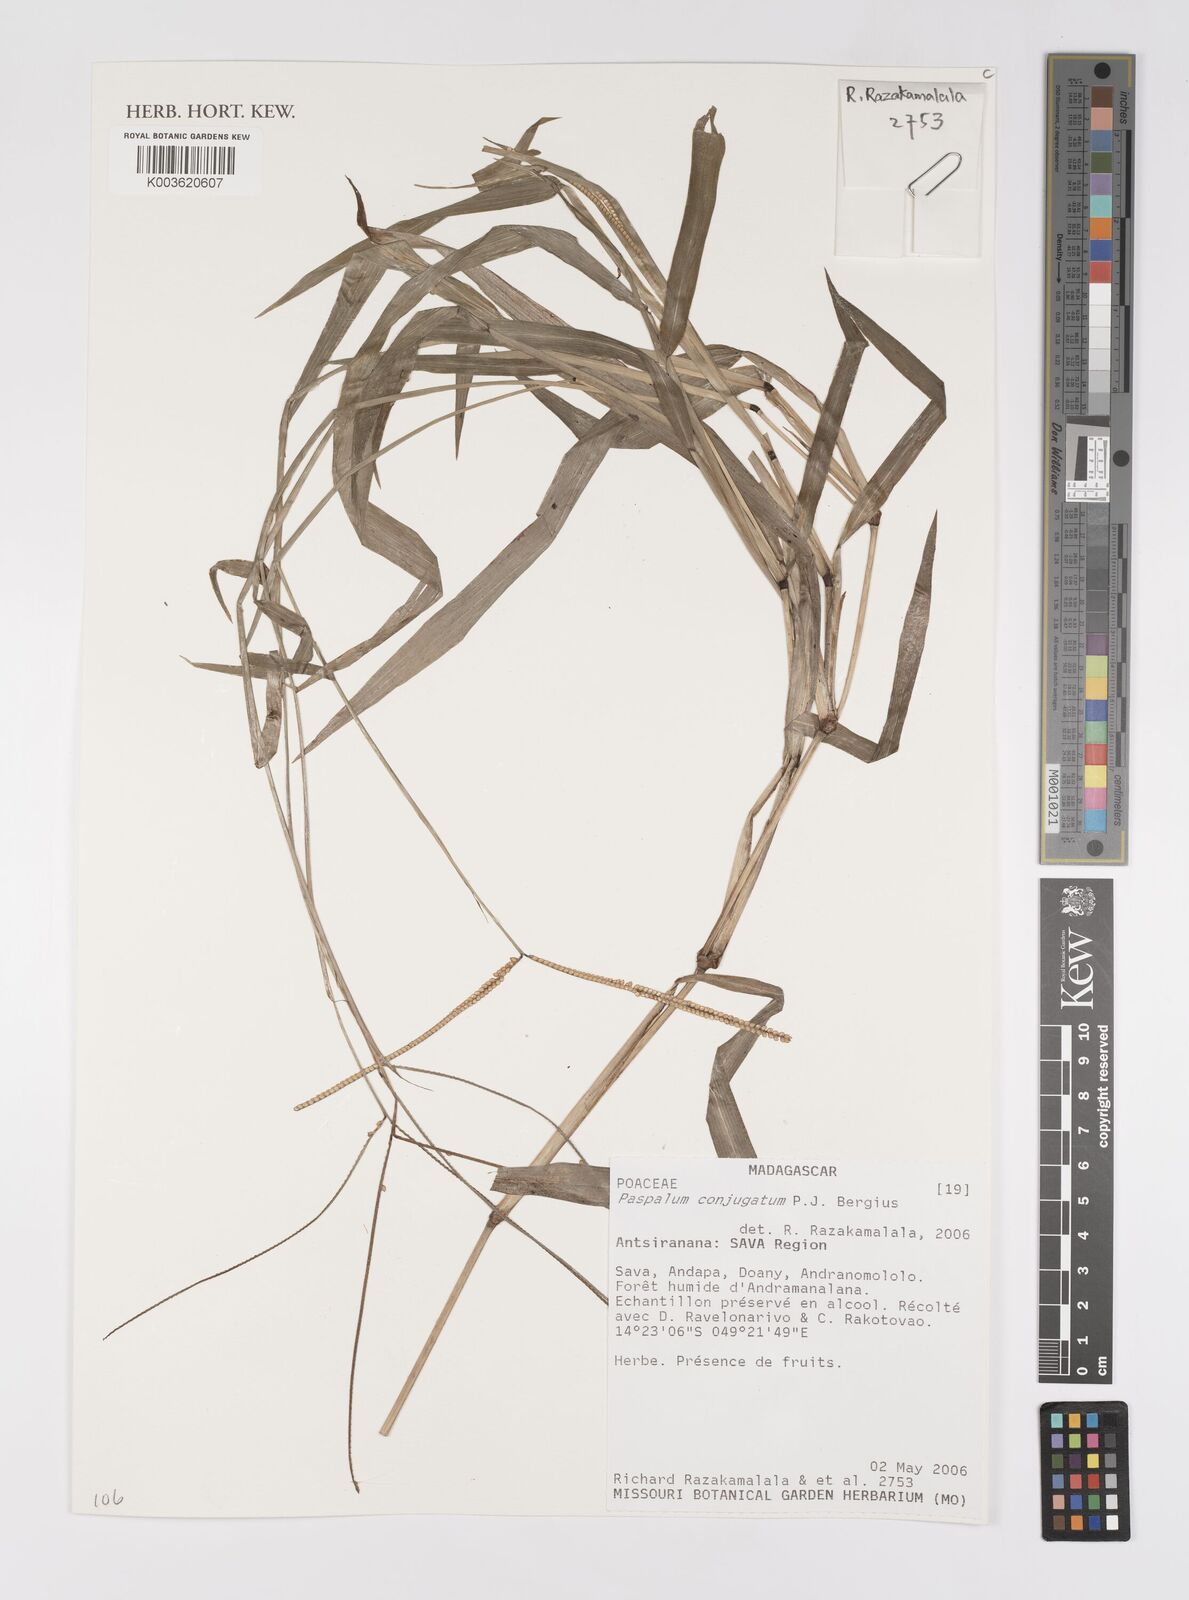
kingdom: Plantae
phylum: Tracheophyta
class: Liliopsida
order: Poales
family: Poaceae
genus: Paspalum
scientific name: Paspalum conjugatum
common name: Hilograss
